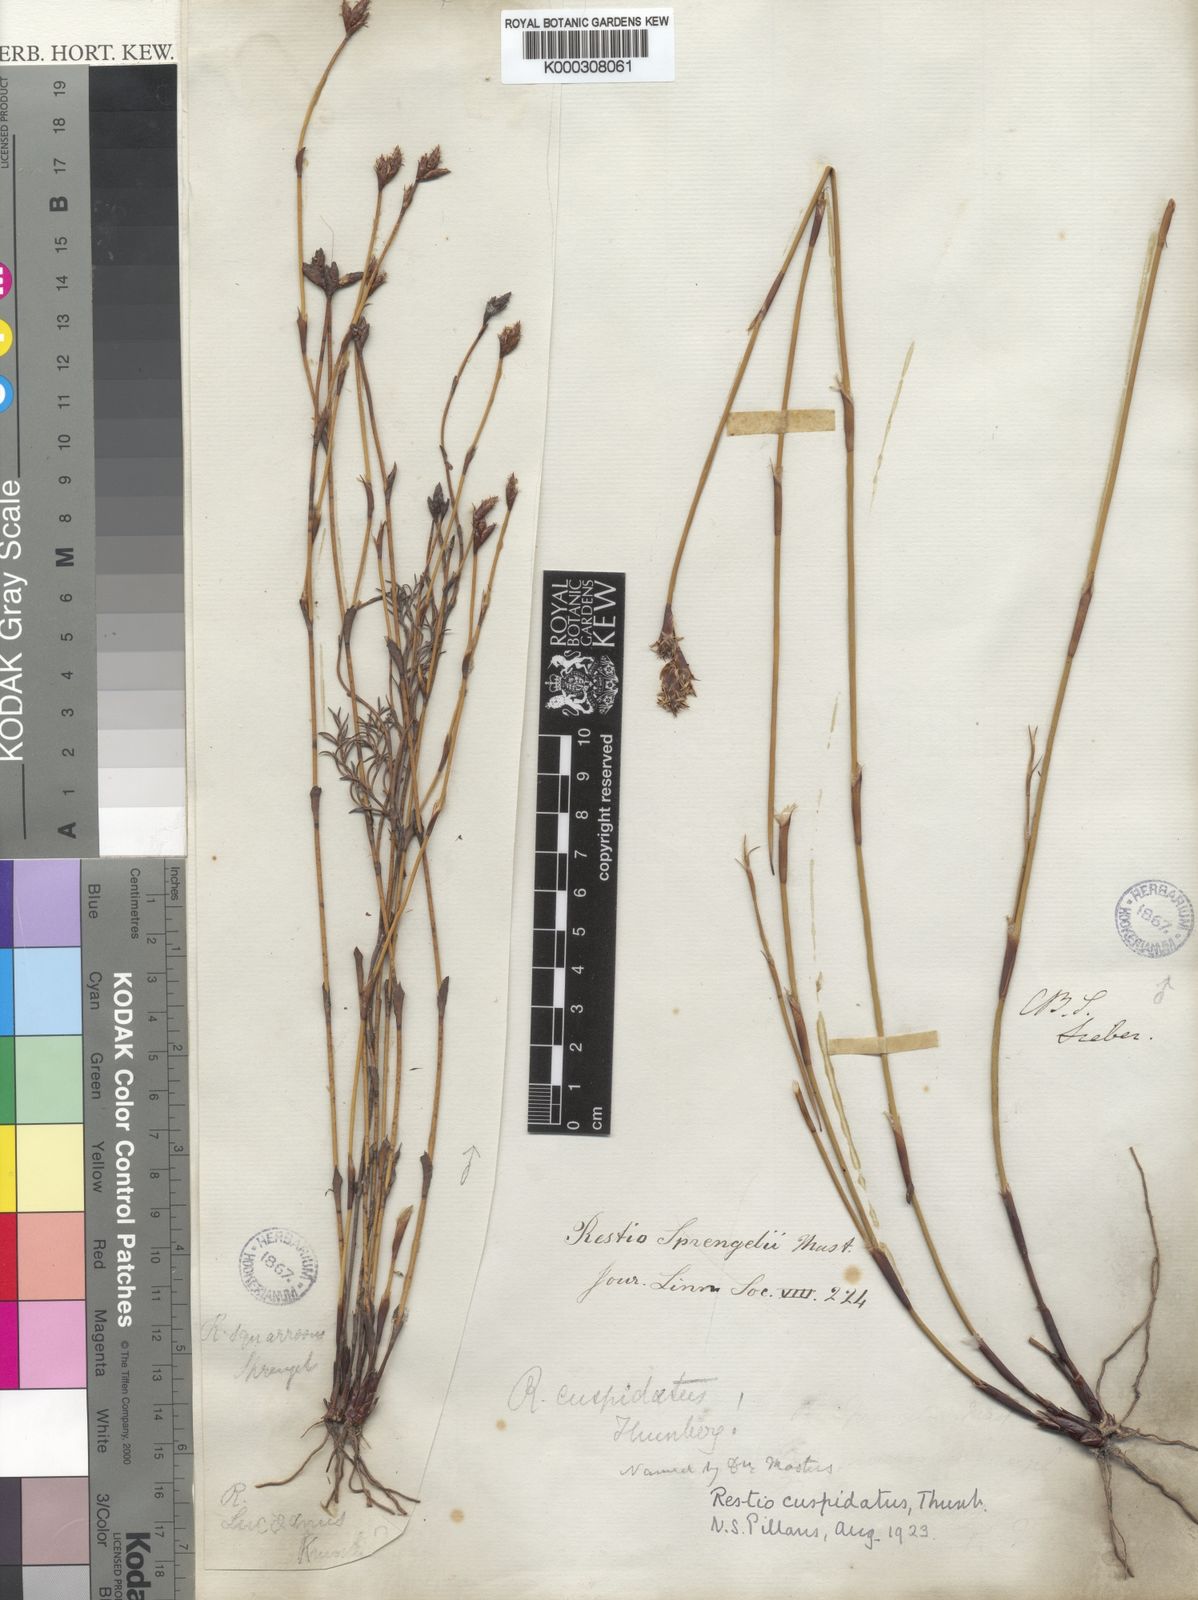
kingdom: Plantae
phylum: Tracheophyta
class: Liliopsida
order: Poales
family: Restionaceae
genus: Restio
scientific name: Restio capensis
